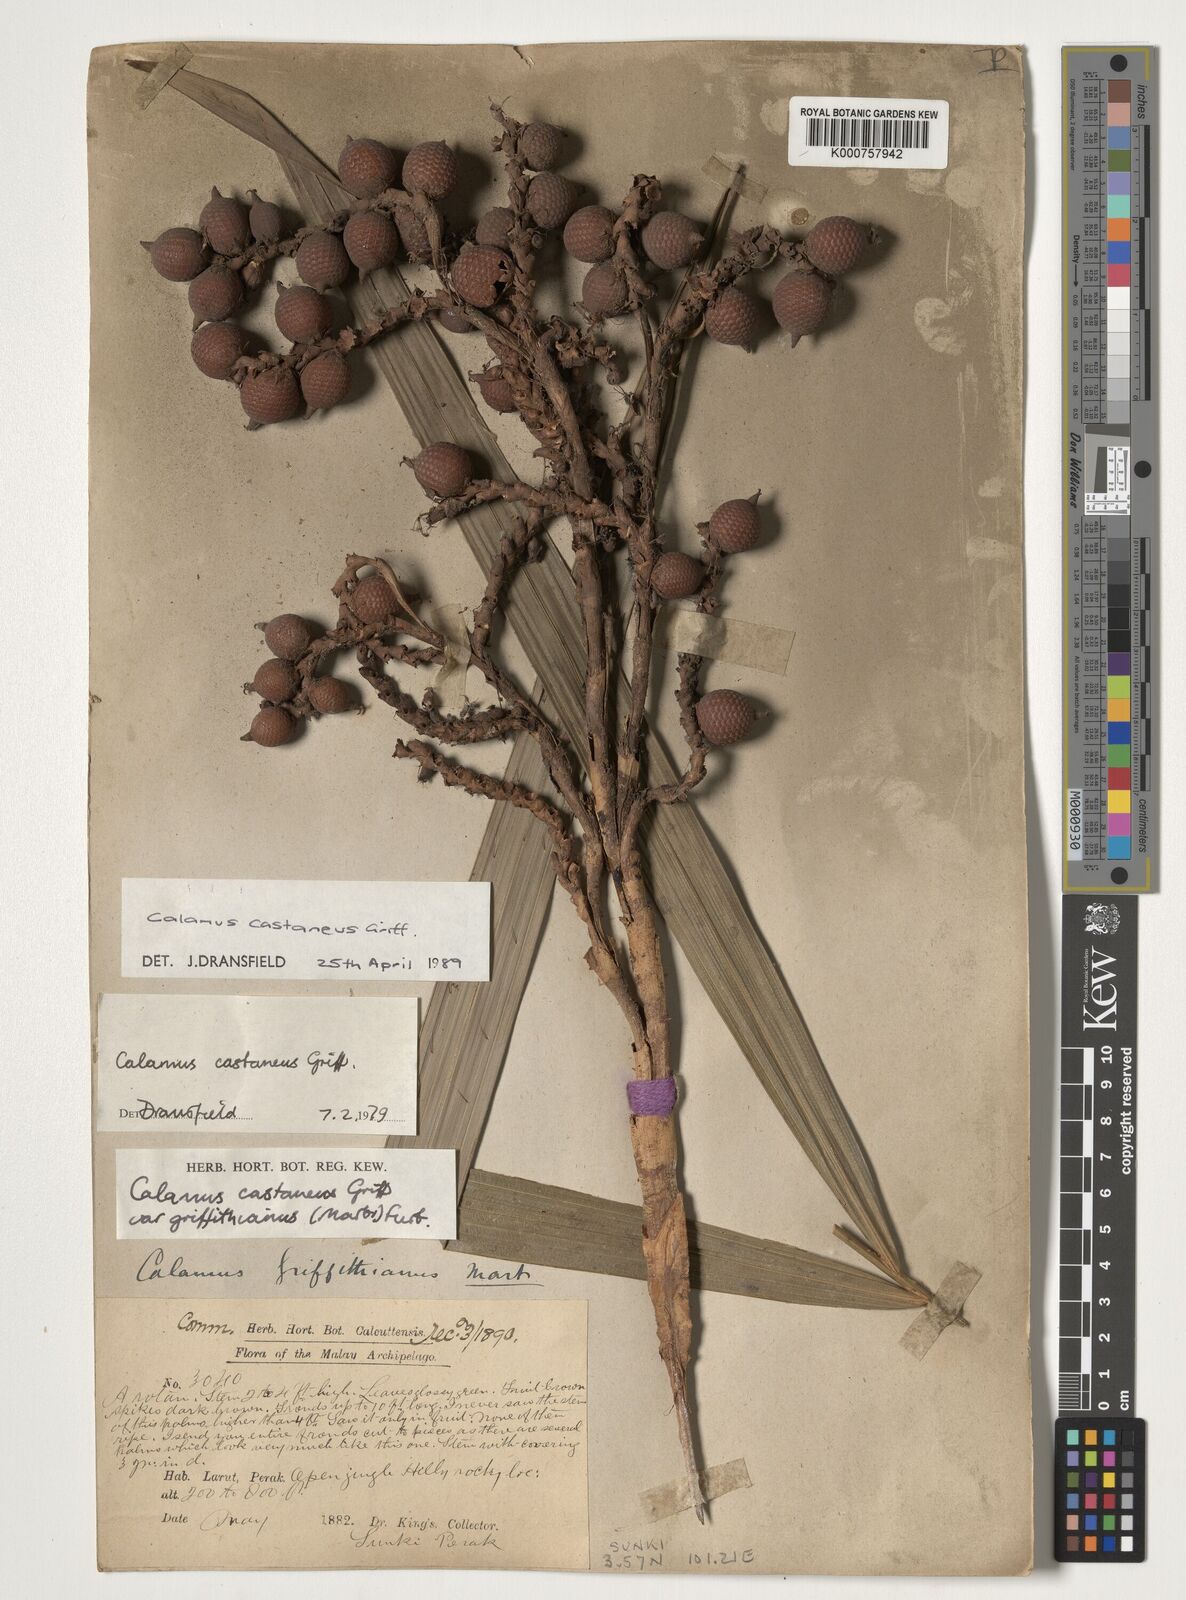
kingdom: Plantae
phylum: Tracheophyta
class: Liliopsida
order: Arecales
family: Arecaceae
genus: Calamus
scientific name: Calamus castaneus
